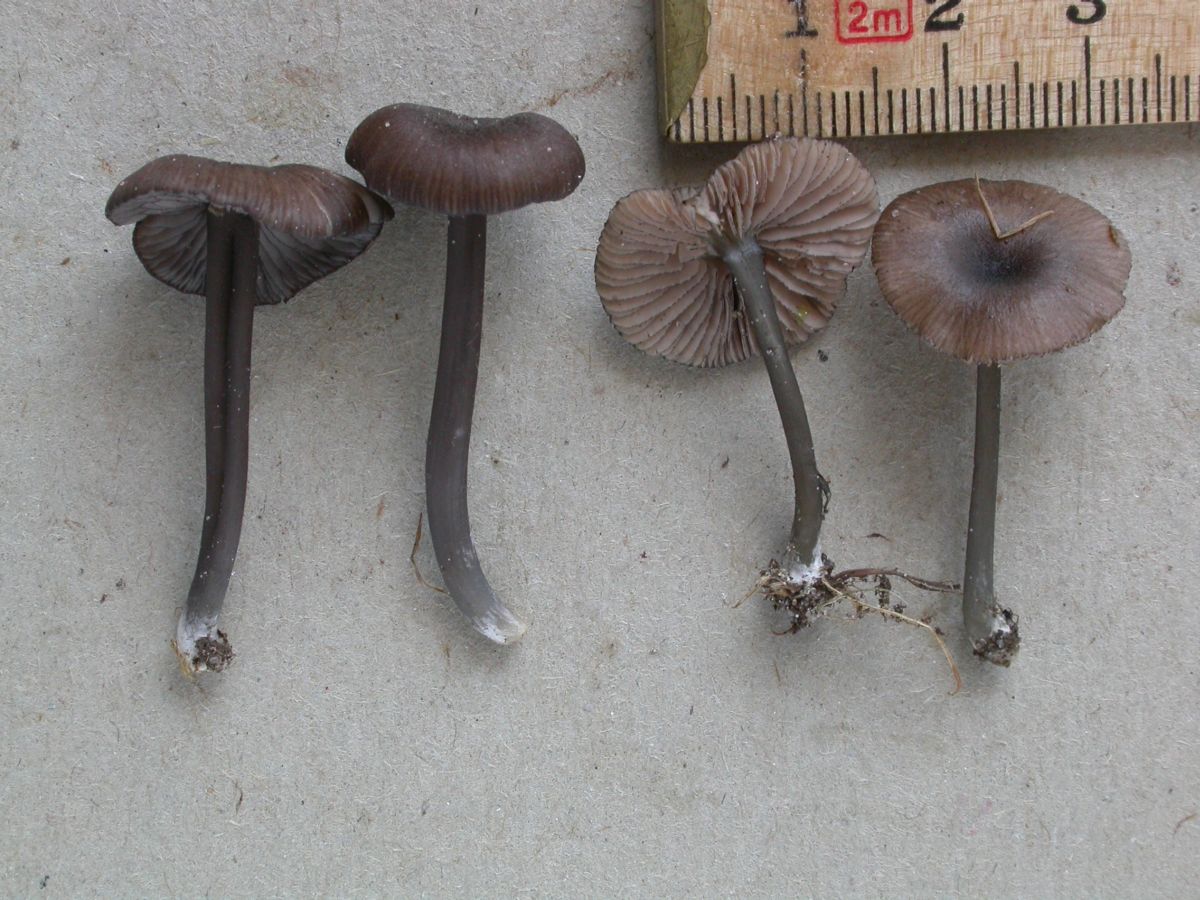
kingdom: Fungi
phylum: Basidiomycota
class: Agaricomycetes
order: Agaricales
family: Entolomataceae
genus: Entoloma
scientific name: Entoloma
